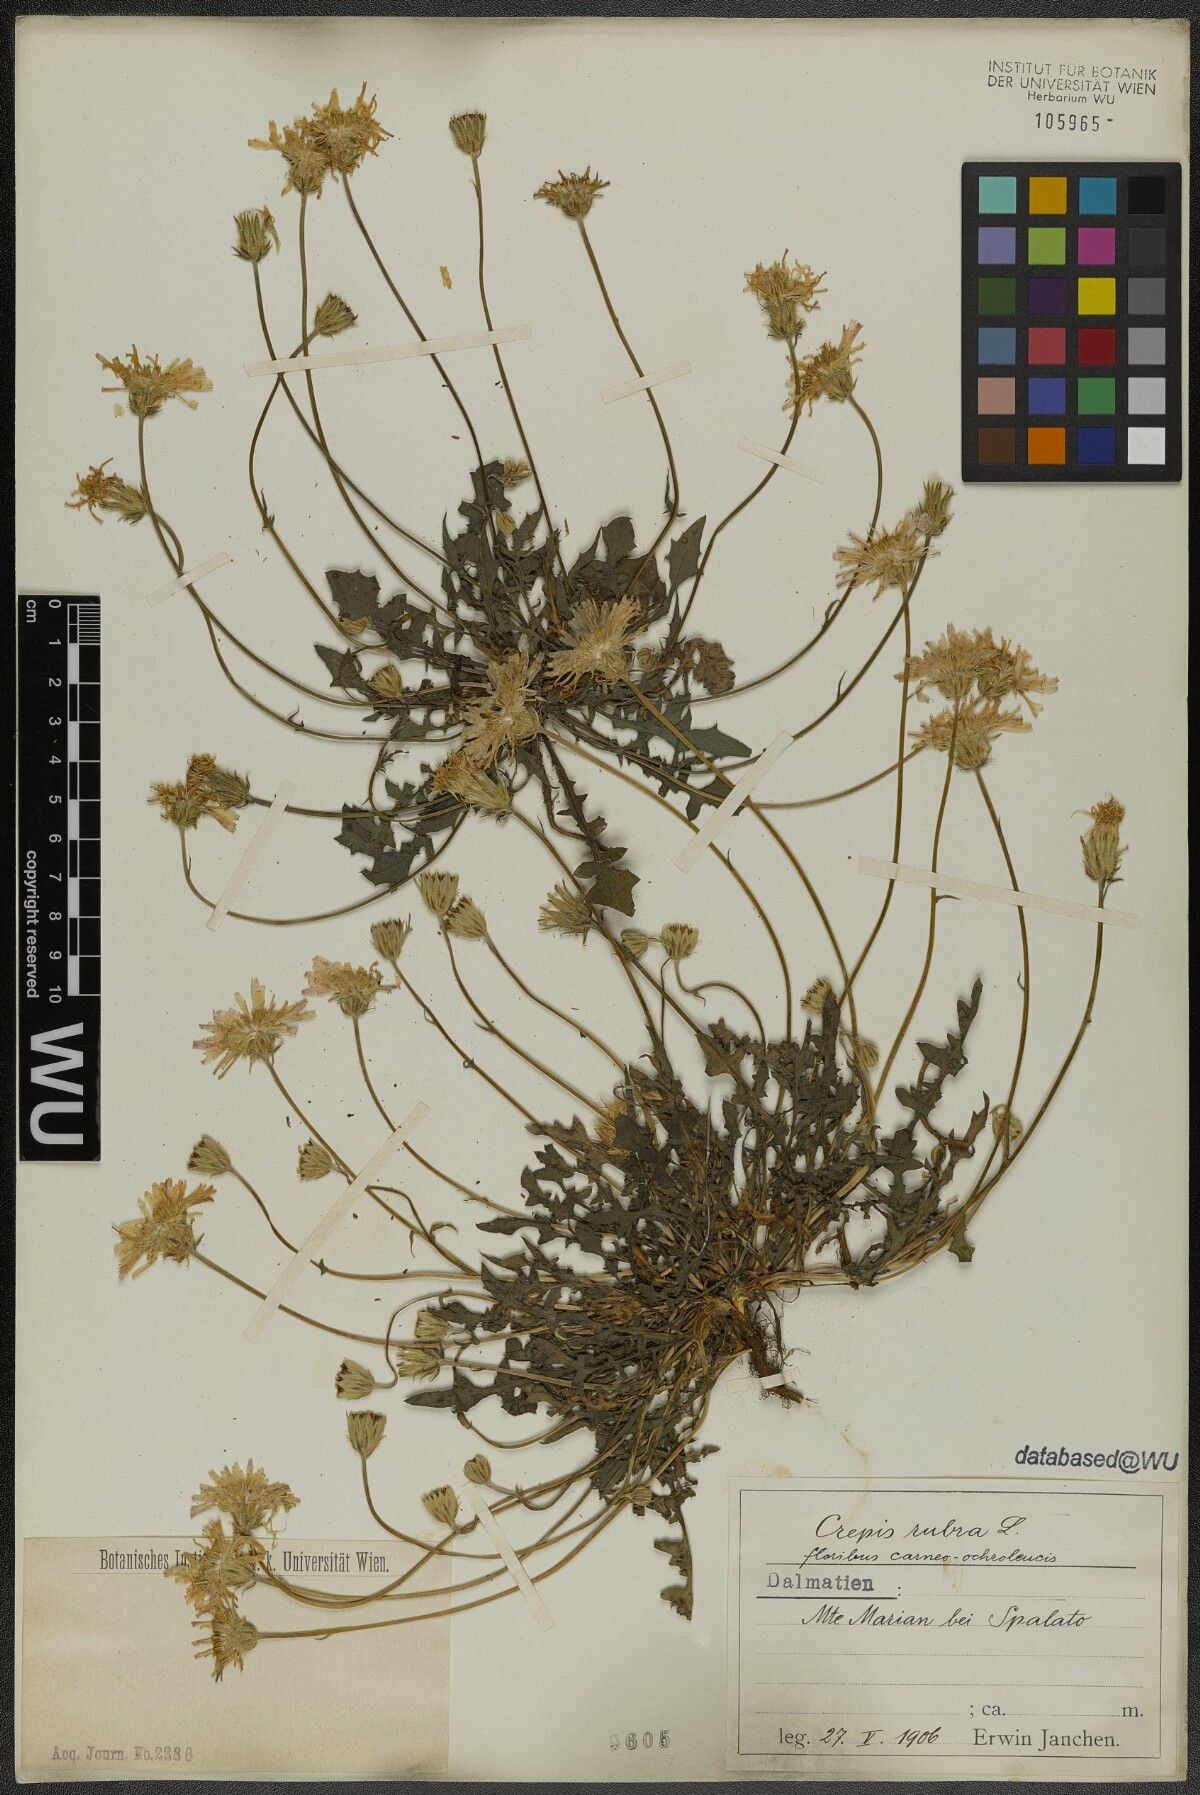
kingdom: Plantae
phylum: Tracheophyta
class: Magnoliopsida
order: Asterales
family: Asteraceae
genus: Crepis
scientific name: Crepis rubra
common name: Pink hawk's-beard
